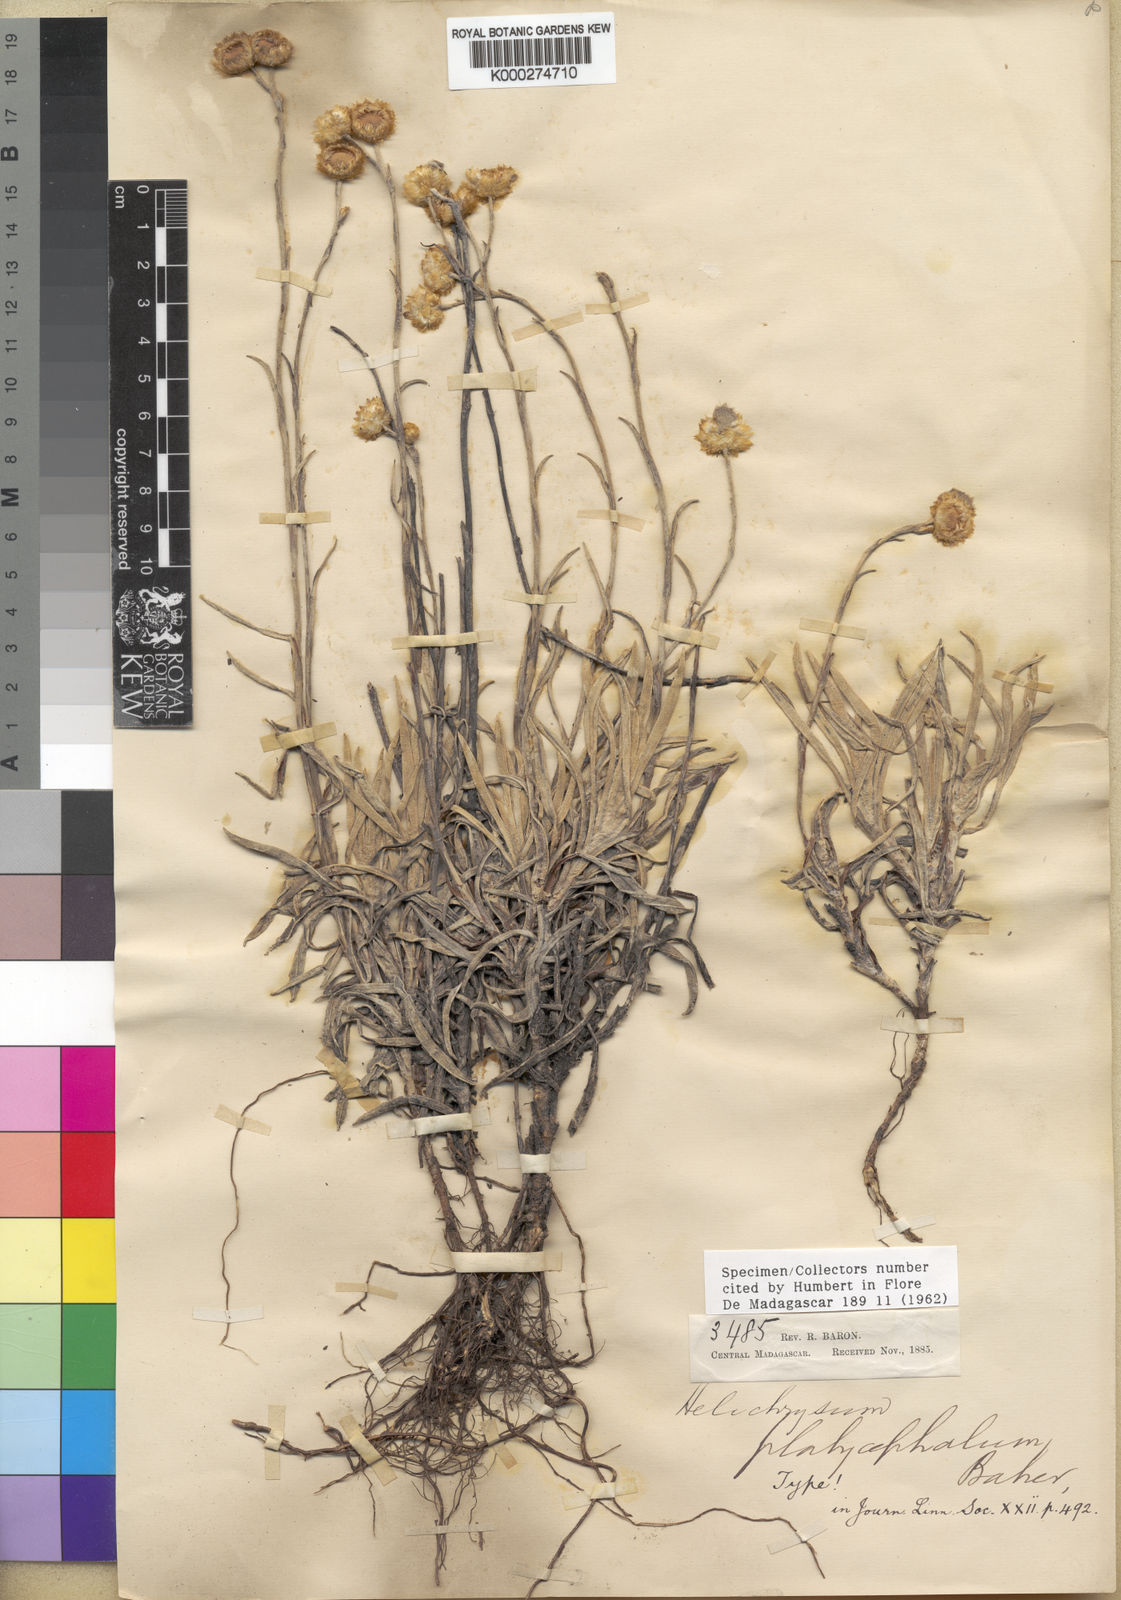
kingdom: Plantae
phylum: Tracheophyta
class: Magnoliopsida
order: Asterales
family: Asteraceae
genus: Helichrysum
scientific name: Helichrysum platycephalum
